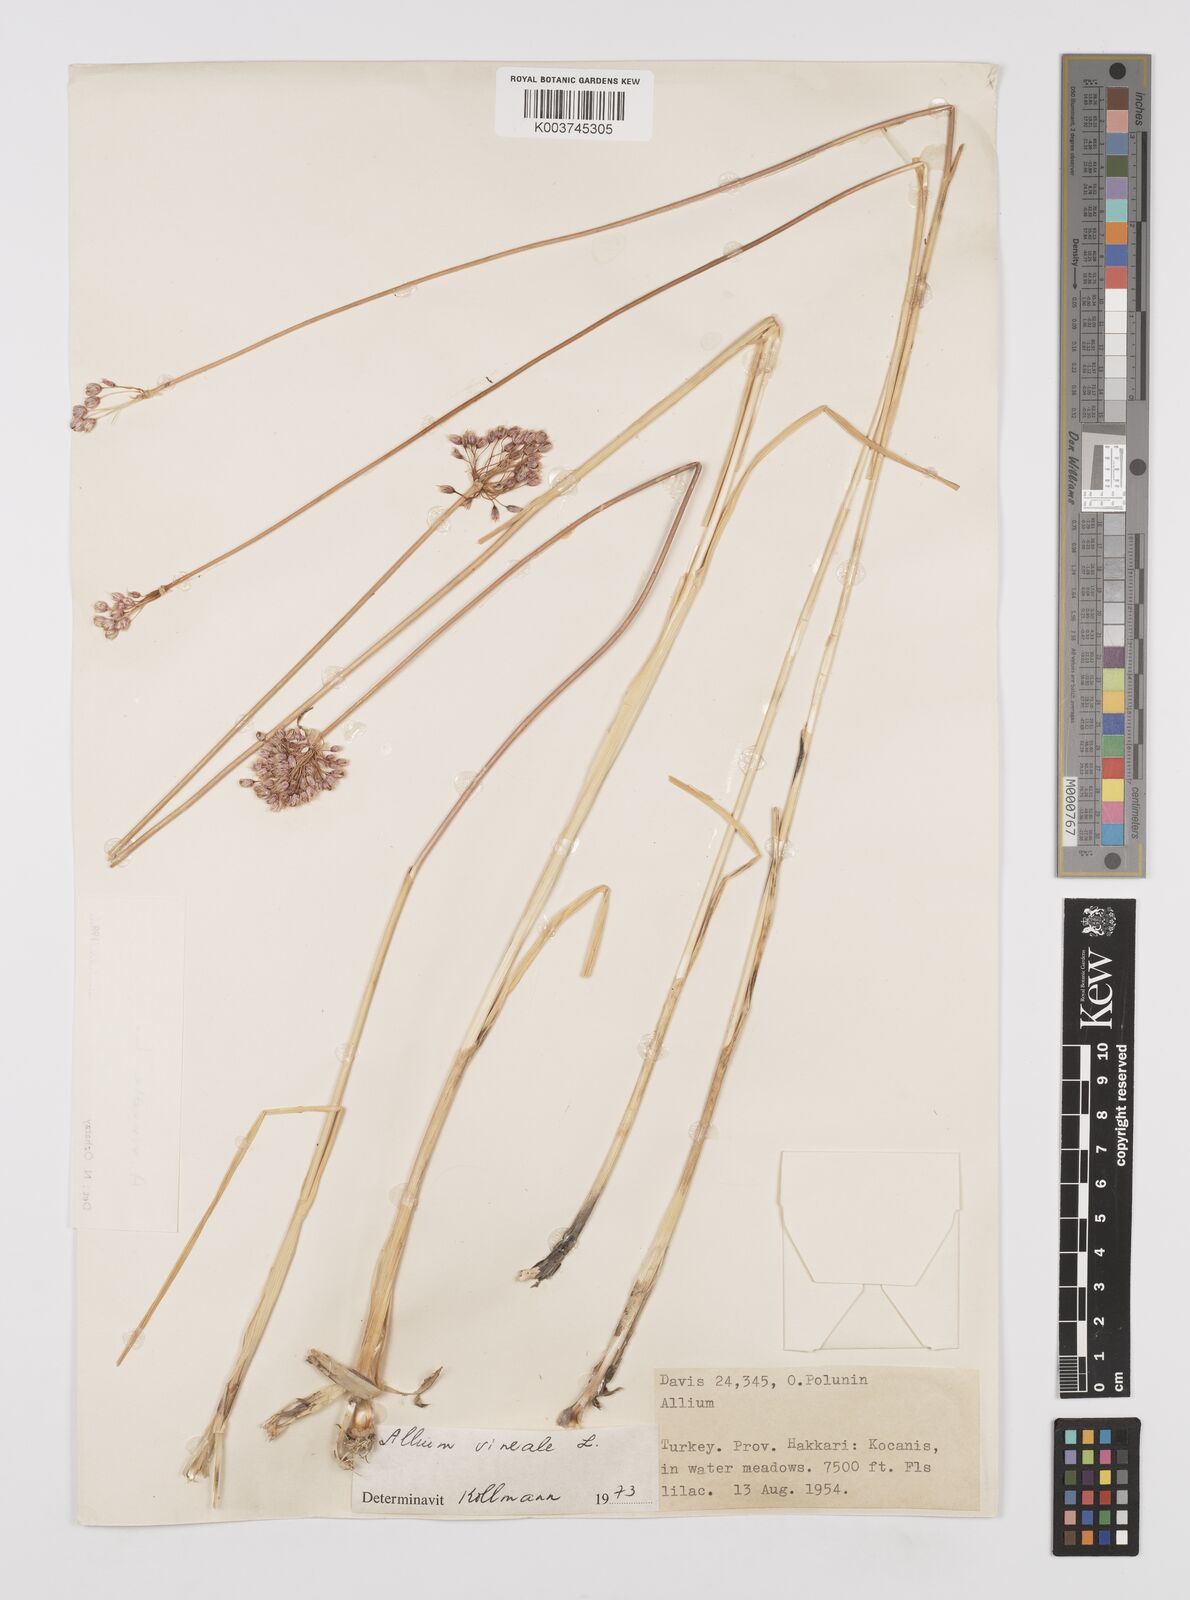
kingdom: Plantae
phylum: Tracheophyta
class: Liliopsida
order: Asparagales
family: Amaryllidaceae
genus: Allium
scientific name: Allium vineale
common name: Crow garlic
